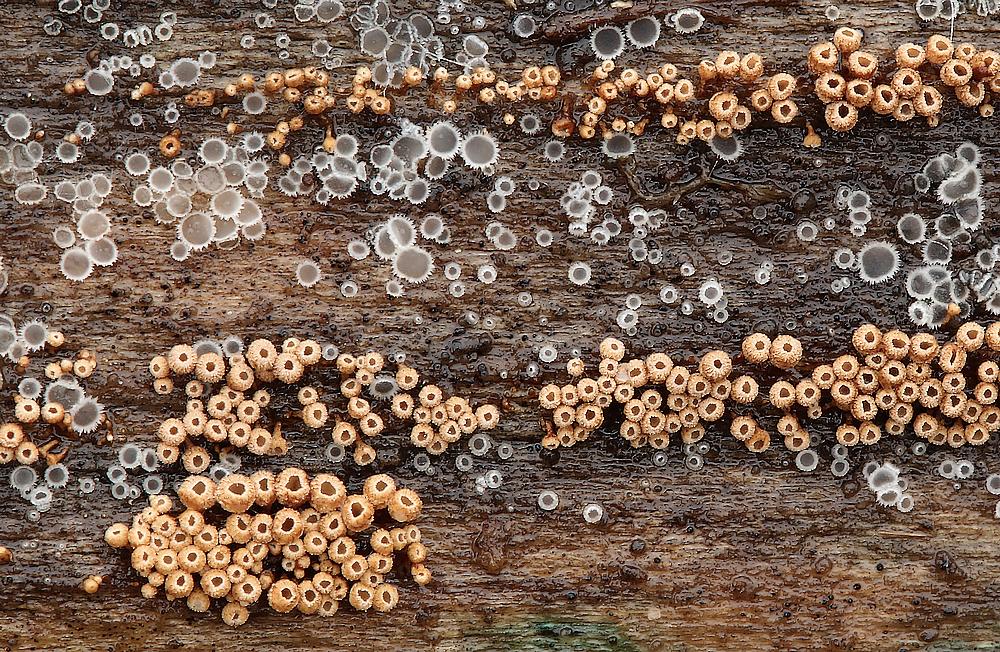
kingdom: Fungi
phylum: Ascomycota
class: Leotiomycetes
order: Helotiales
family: Hyaloscyphaceae
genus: Protounguicularia
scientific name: Protounguicularia transiens
